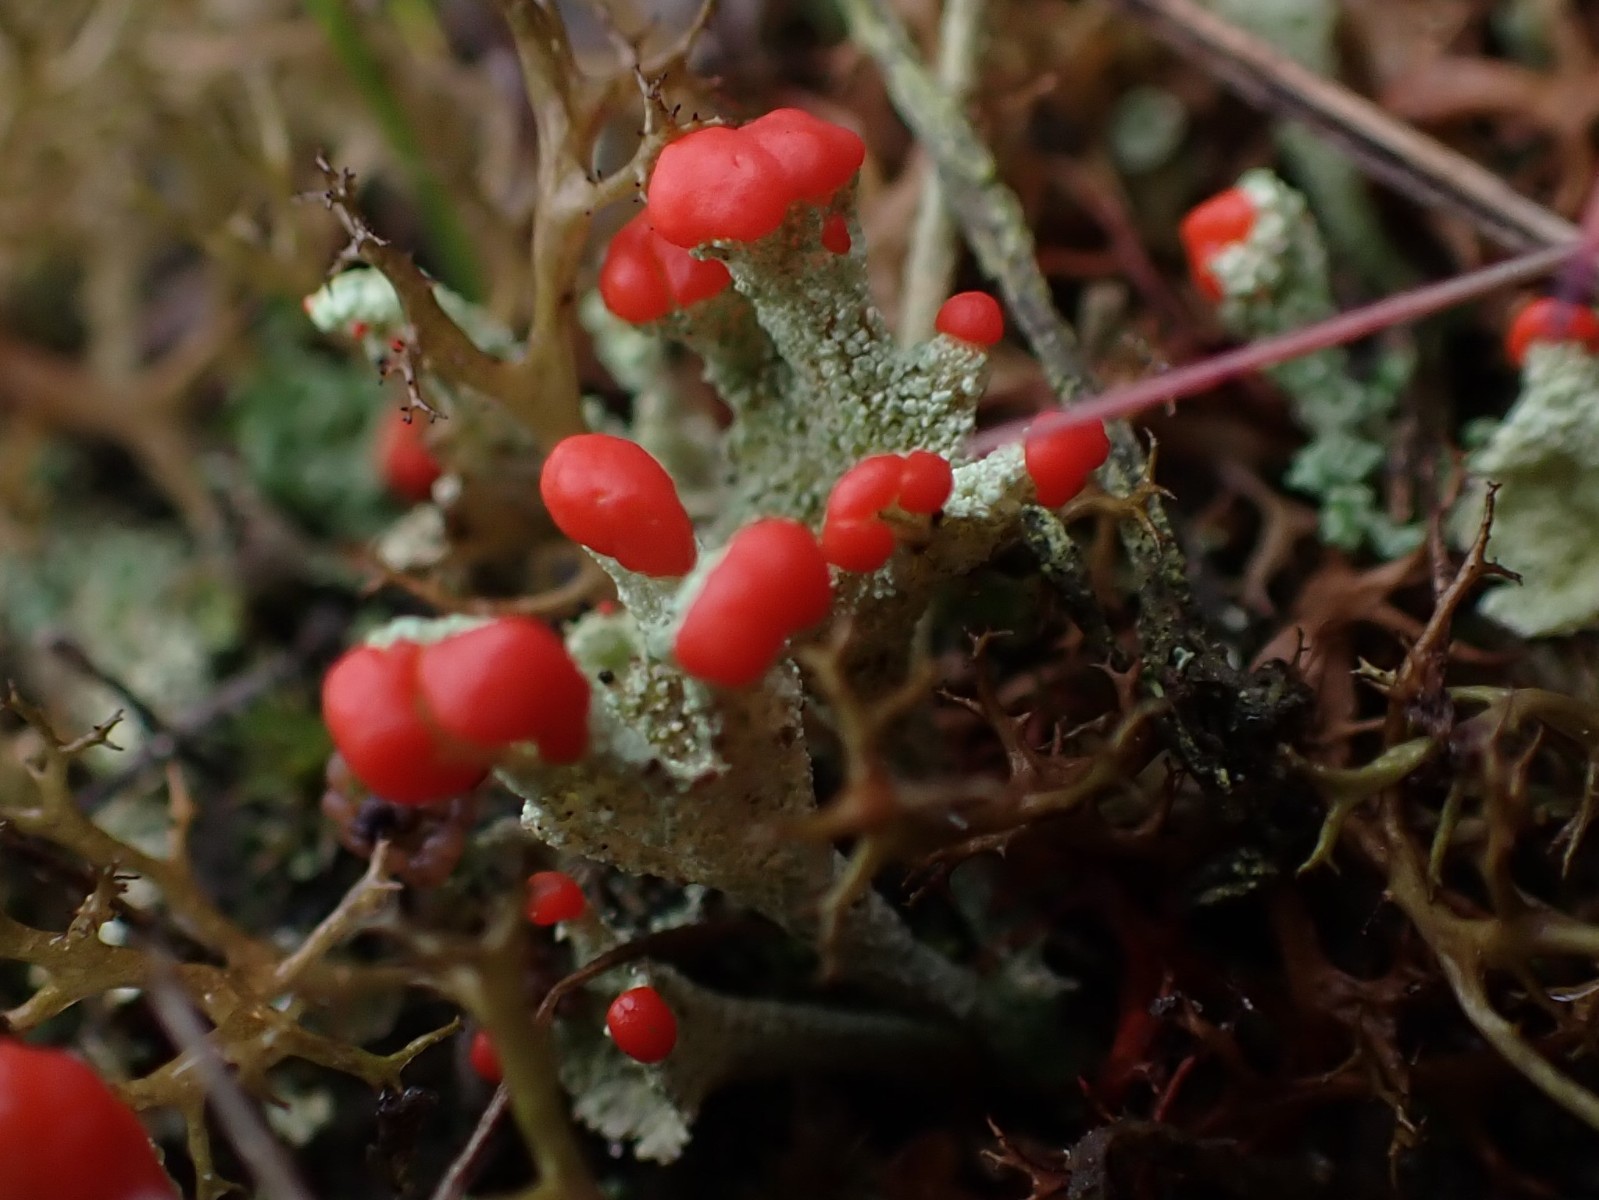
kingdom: Fungi
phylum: Ascomycota
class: Lecanoromycetes
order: Lecanorales
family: Cladoniaceae
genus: Cladonia
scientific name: Cladonia diversa
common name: rød bægerlav
